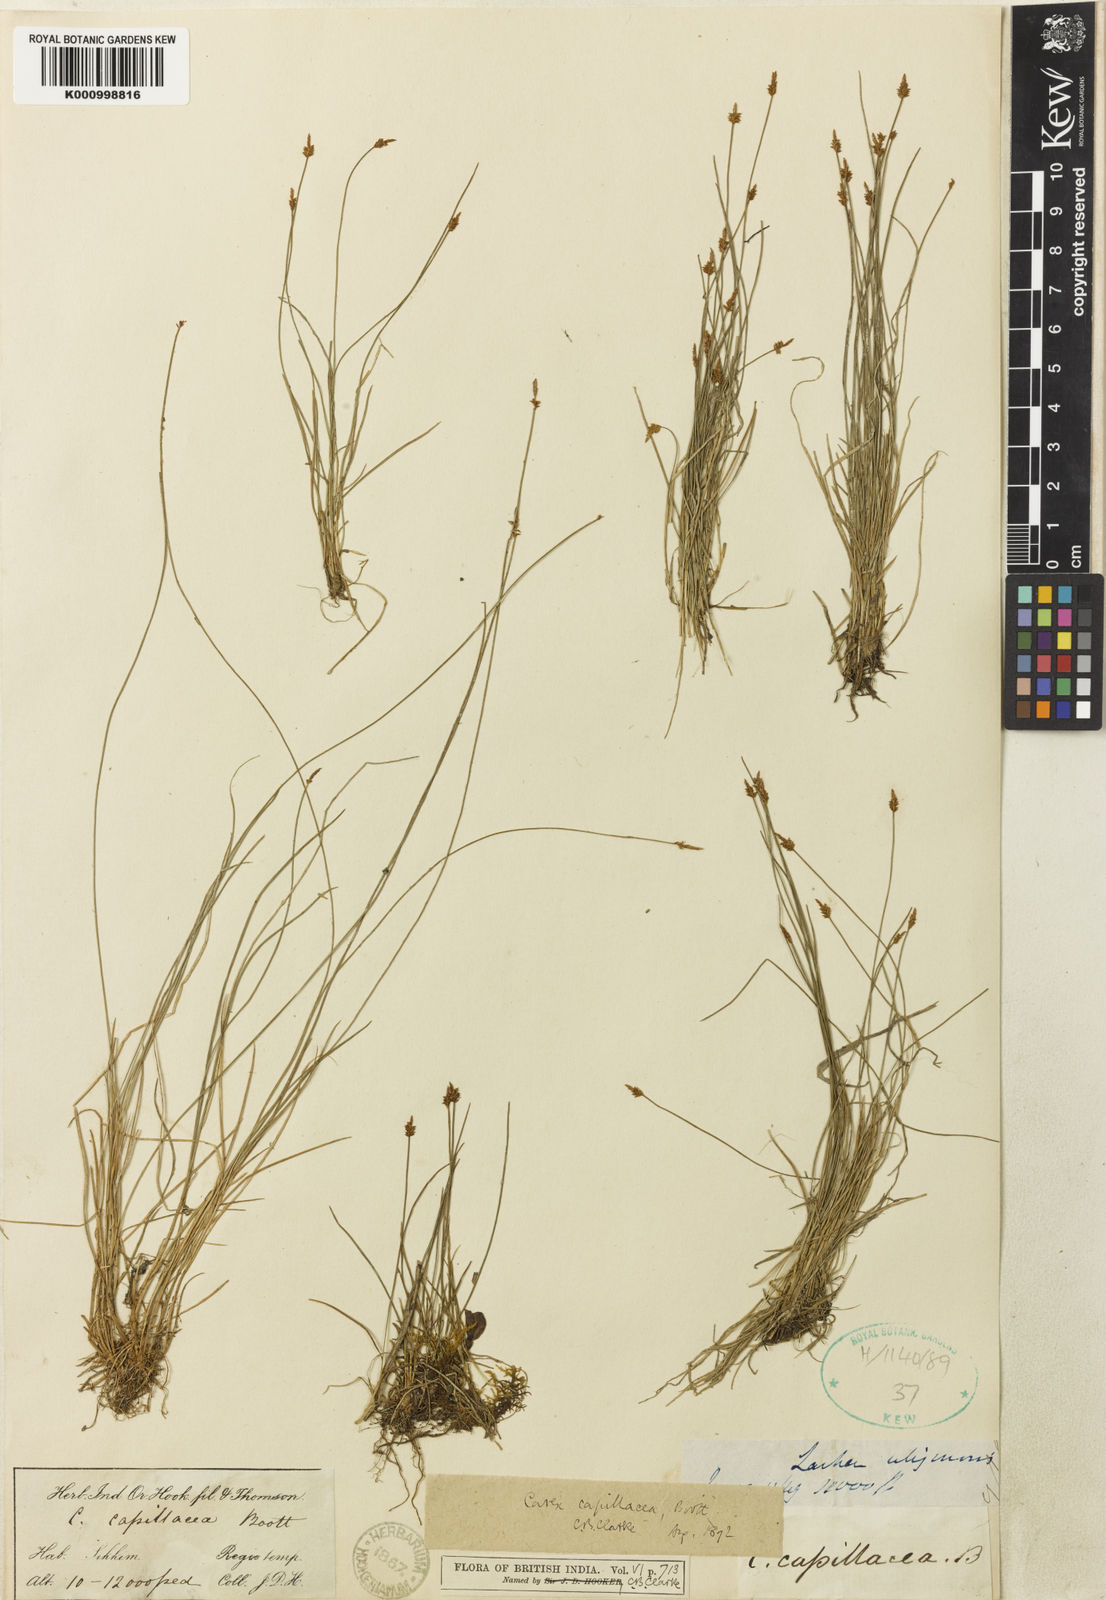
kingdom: Plantae
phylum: Tracheophyta
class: Liliopsida
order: Poales
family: Cyperaceae
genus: Carex
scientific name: Carex
